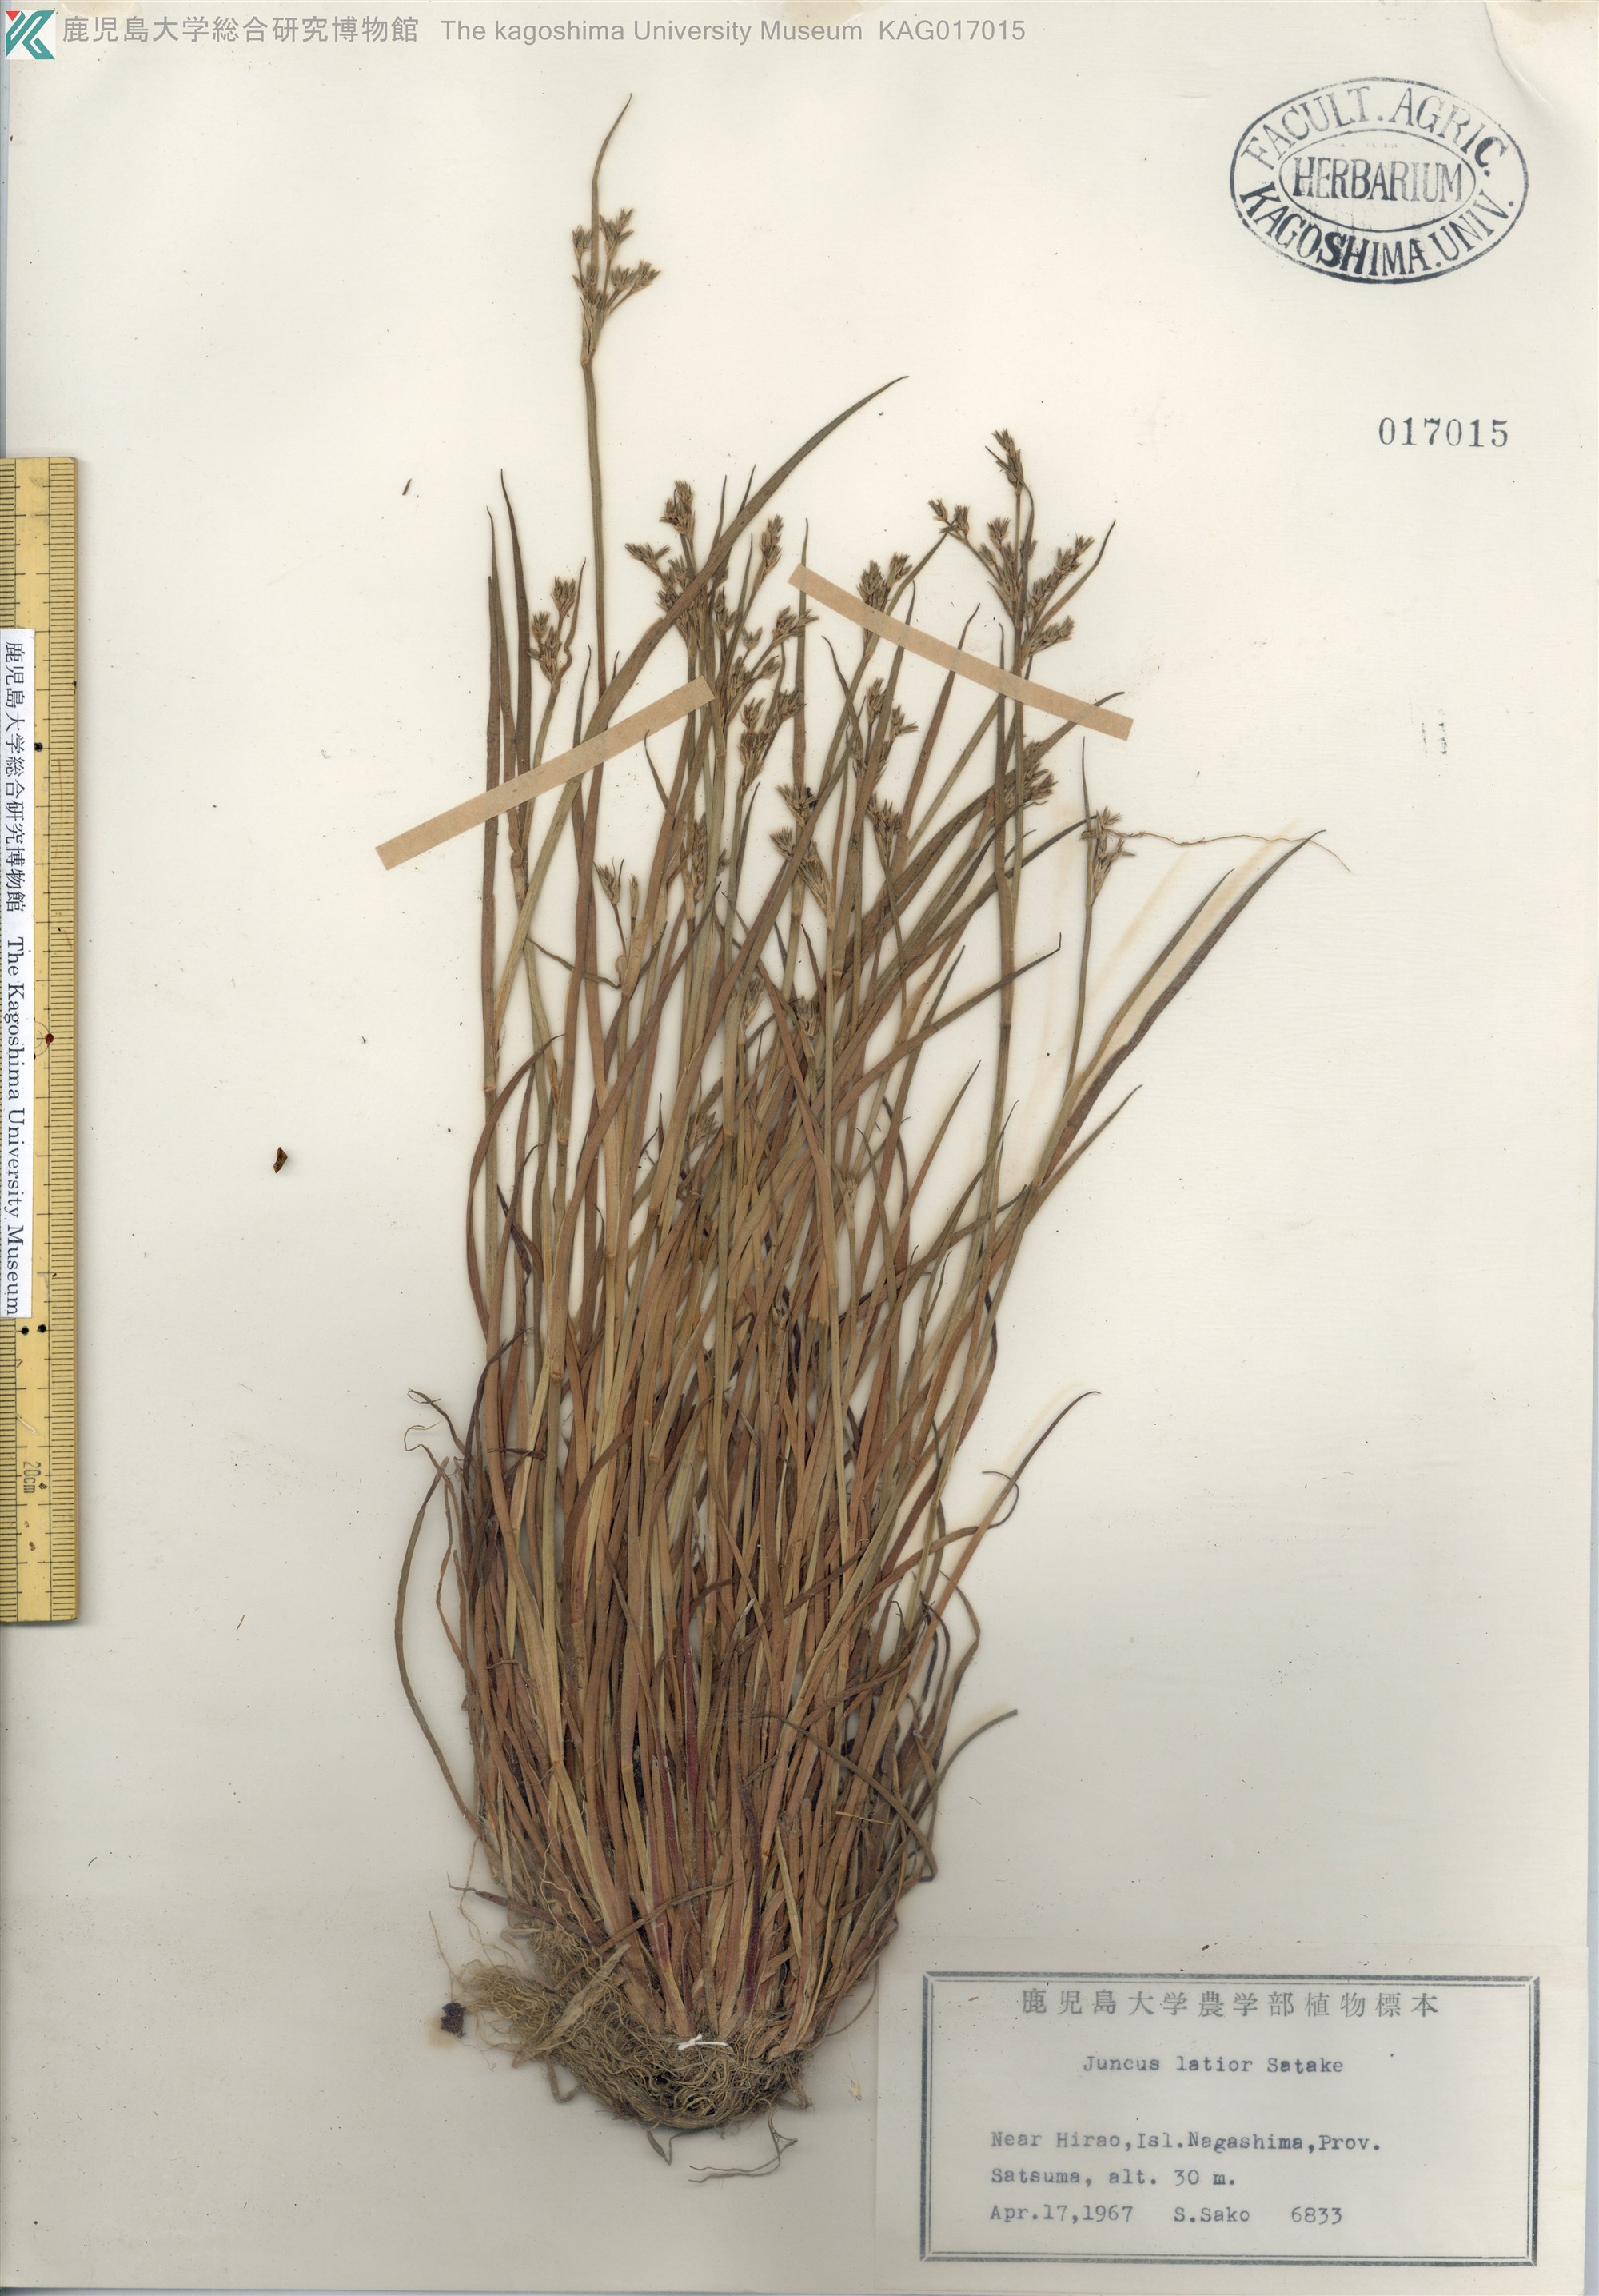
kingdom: Plantae
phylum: Tracheophyta
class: Liliopsida
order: Poales
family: Juncaceae
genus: Juncus
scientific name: Juncus prismatocarpus
